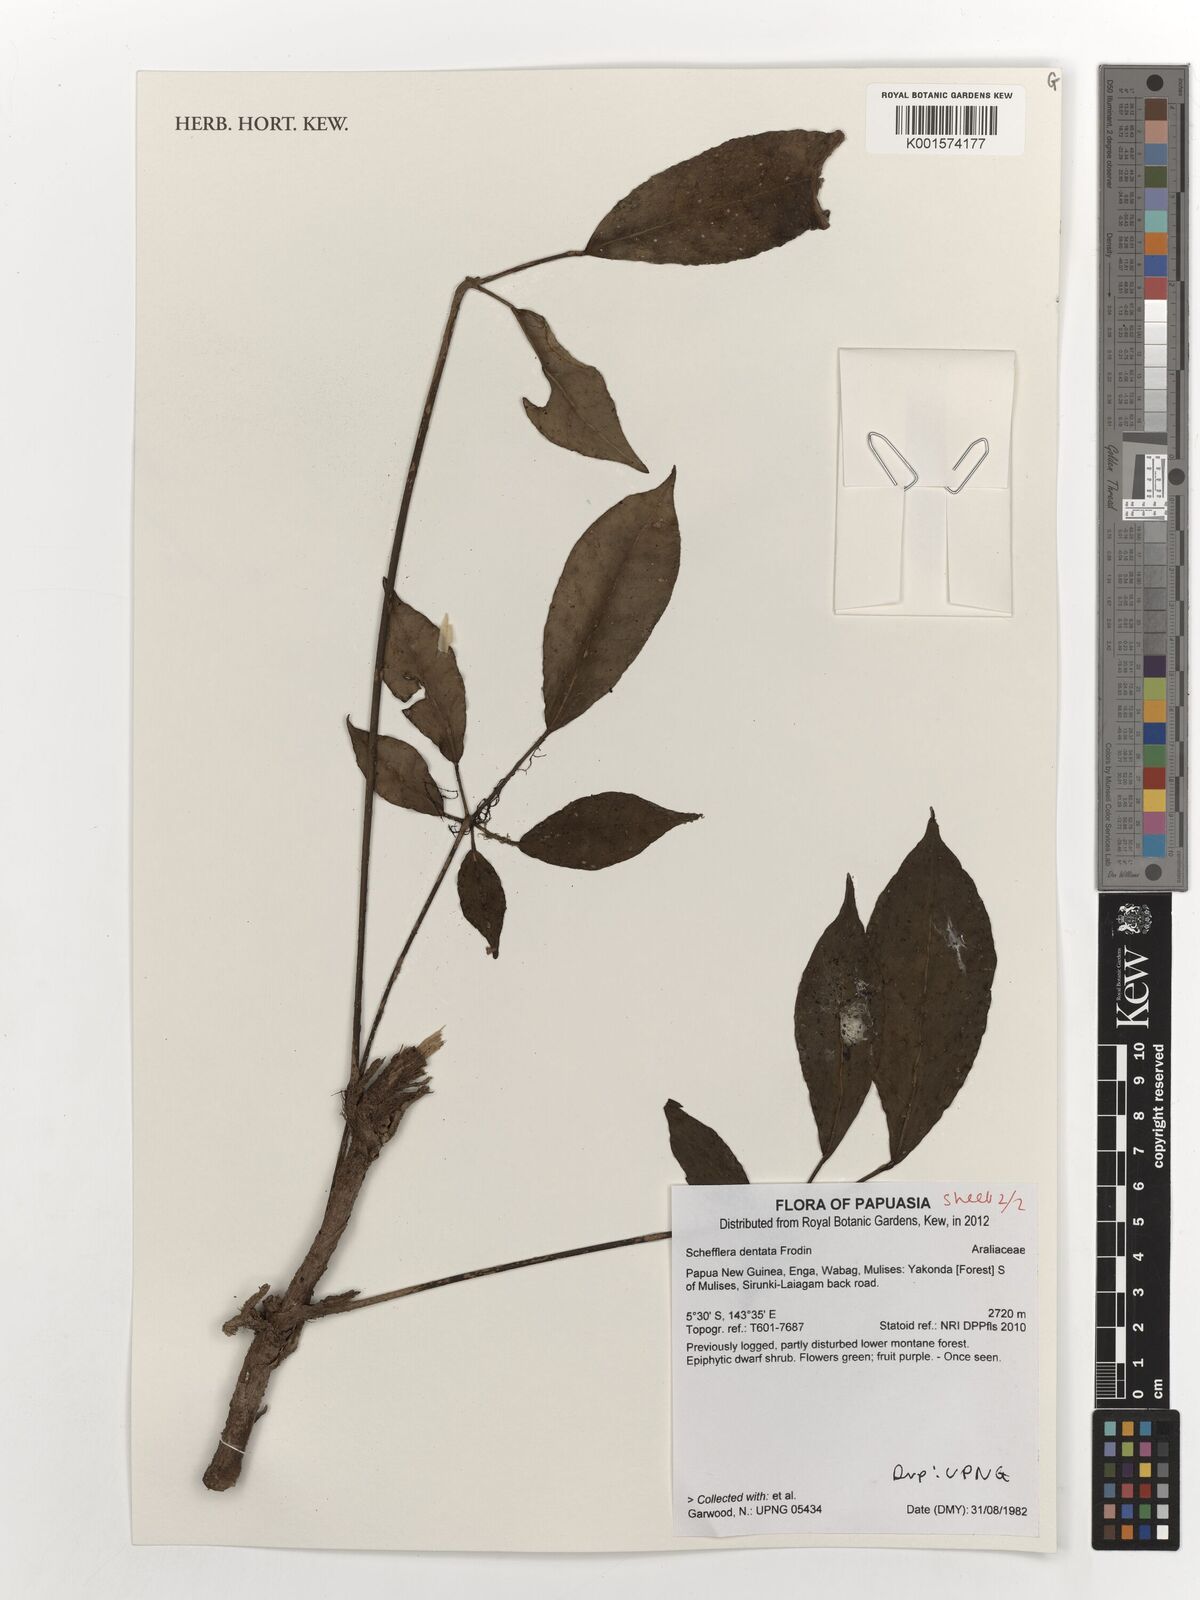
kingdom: Plantae
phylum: Tracheophyta
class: Magnoliopsida
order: Apiales
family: Araliaceae
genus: Heptapleurum
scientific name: Heptapleurum dentatum
